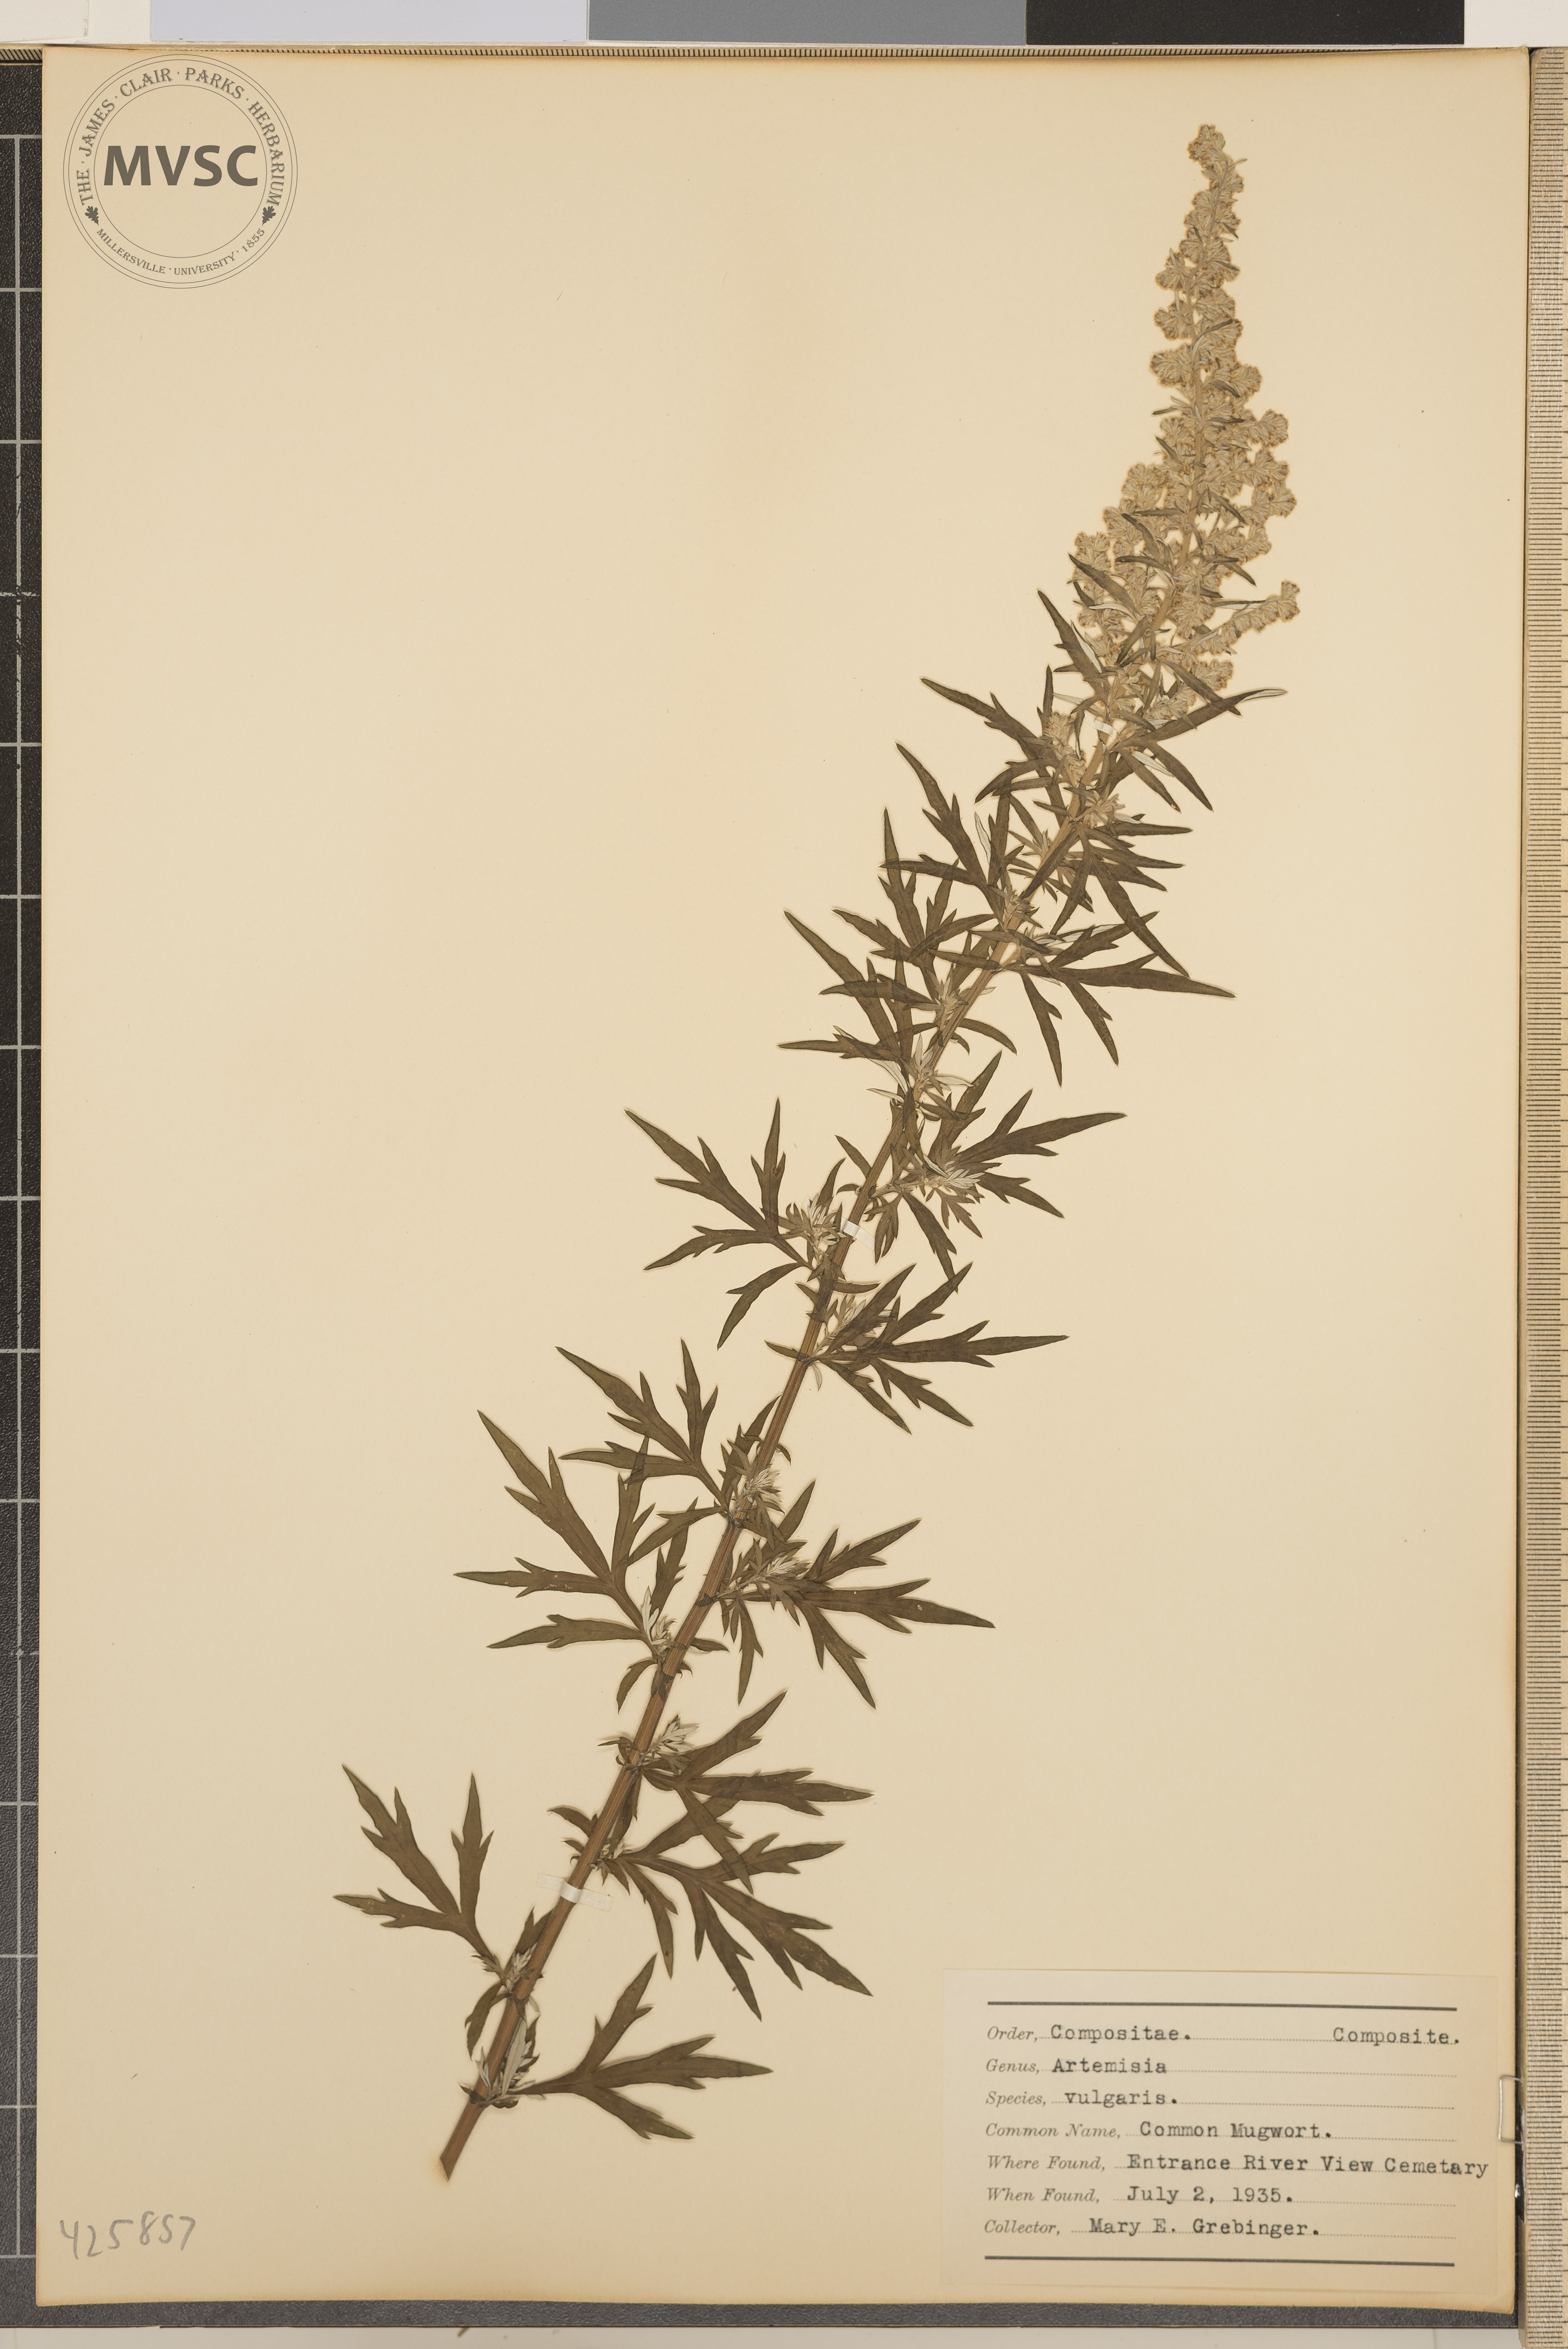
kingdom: Plantae
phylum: Tracheophyta
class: Magnoliopsida
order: Asterales
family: Asteraceae
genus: Artemisia
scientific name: Artemisia vulgaris
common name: Common Mugwort
